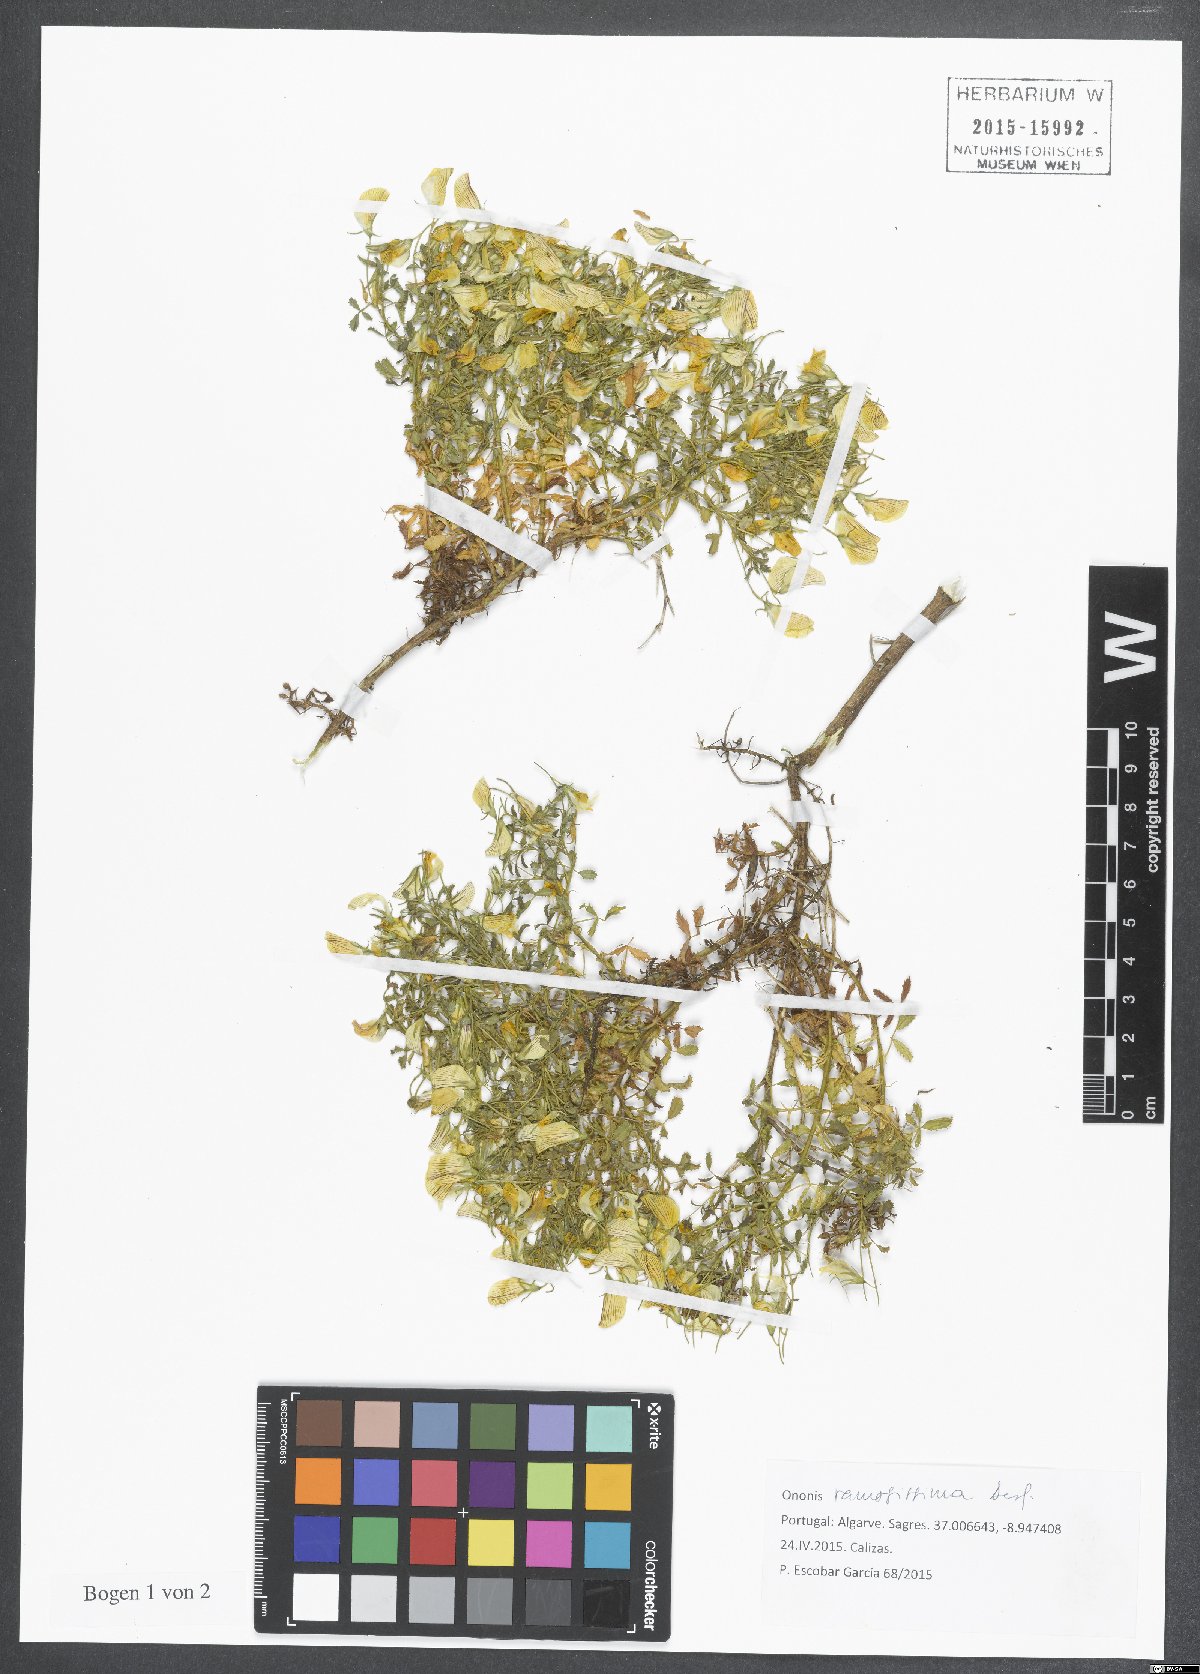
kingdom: Plantae
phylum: Tracheophyta
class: Magnoliopsida
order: Fabales
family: Fabaceae
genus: Ononis
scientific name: Ononis ramosissima
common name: Bush restharrow
